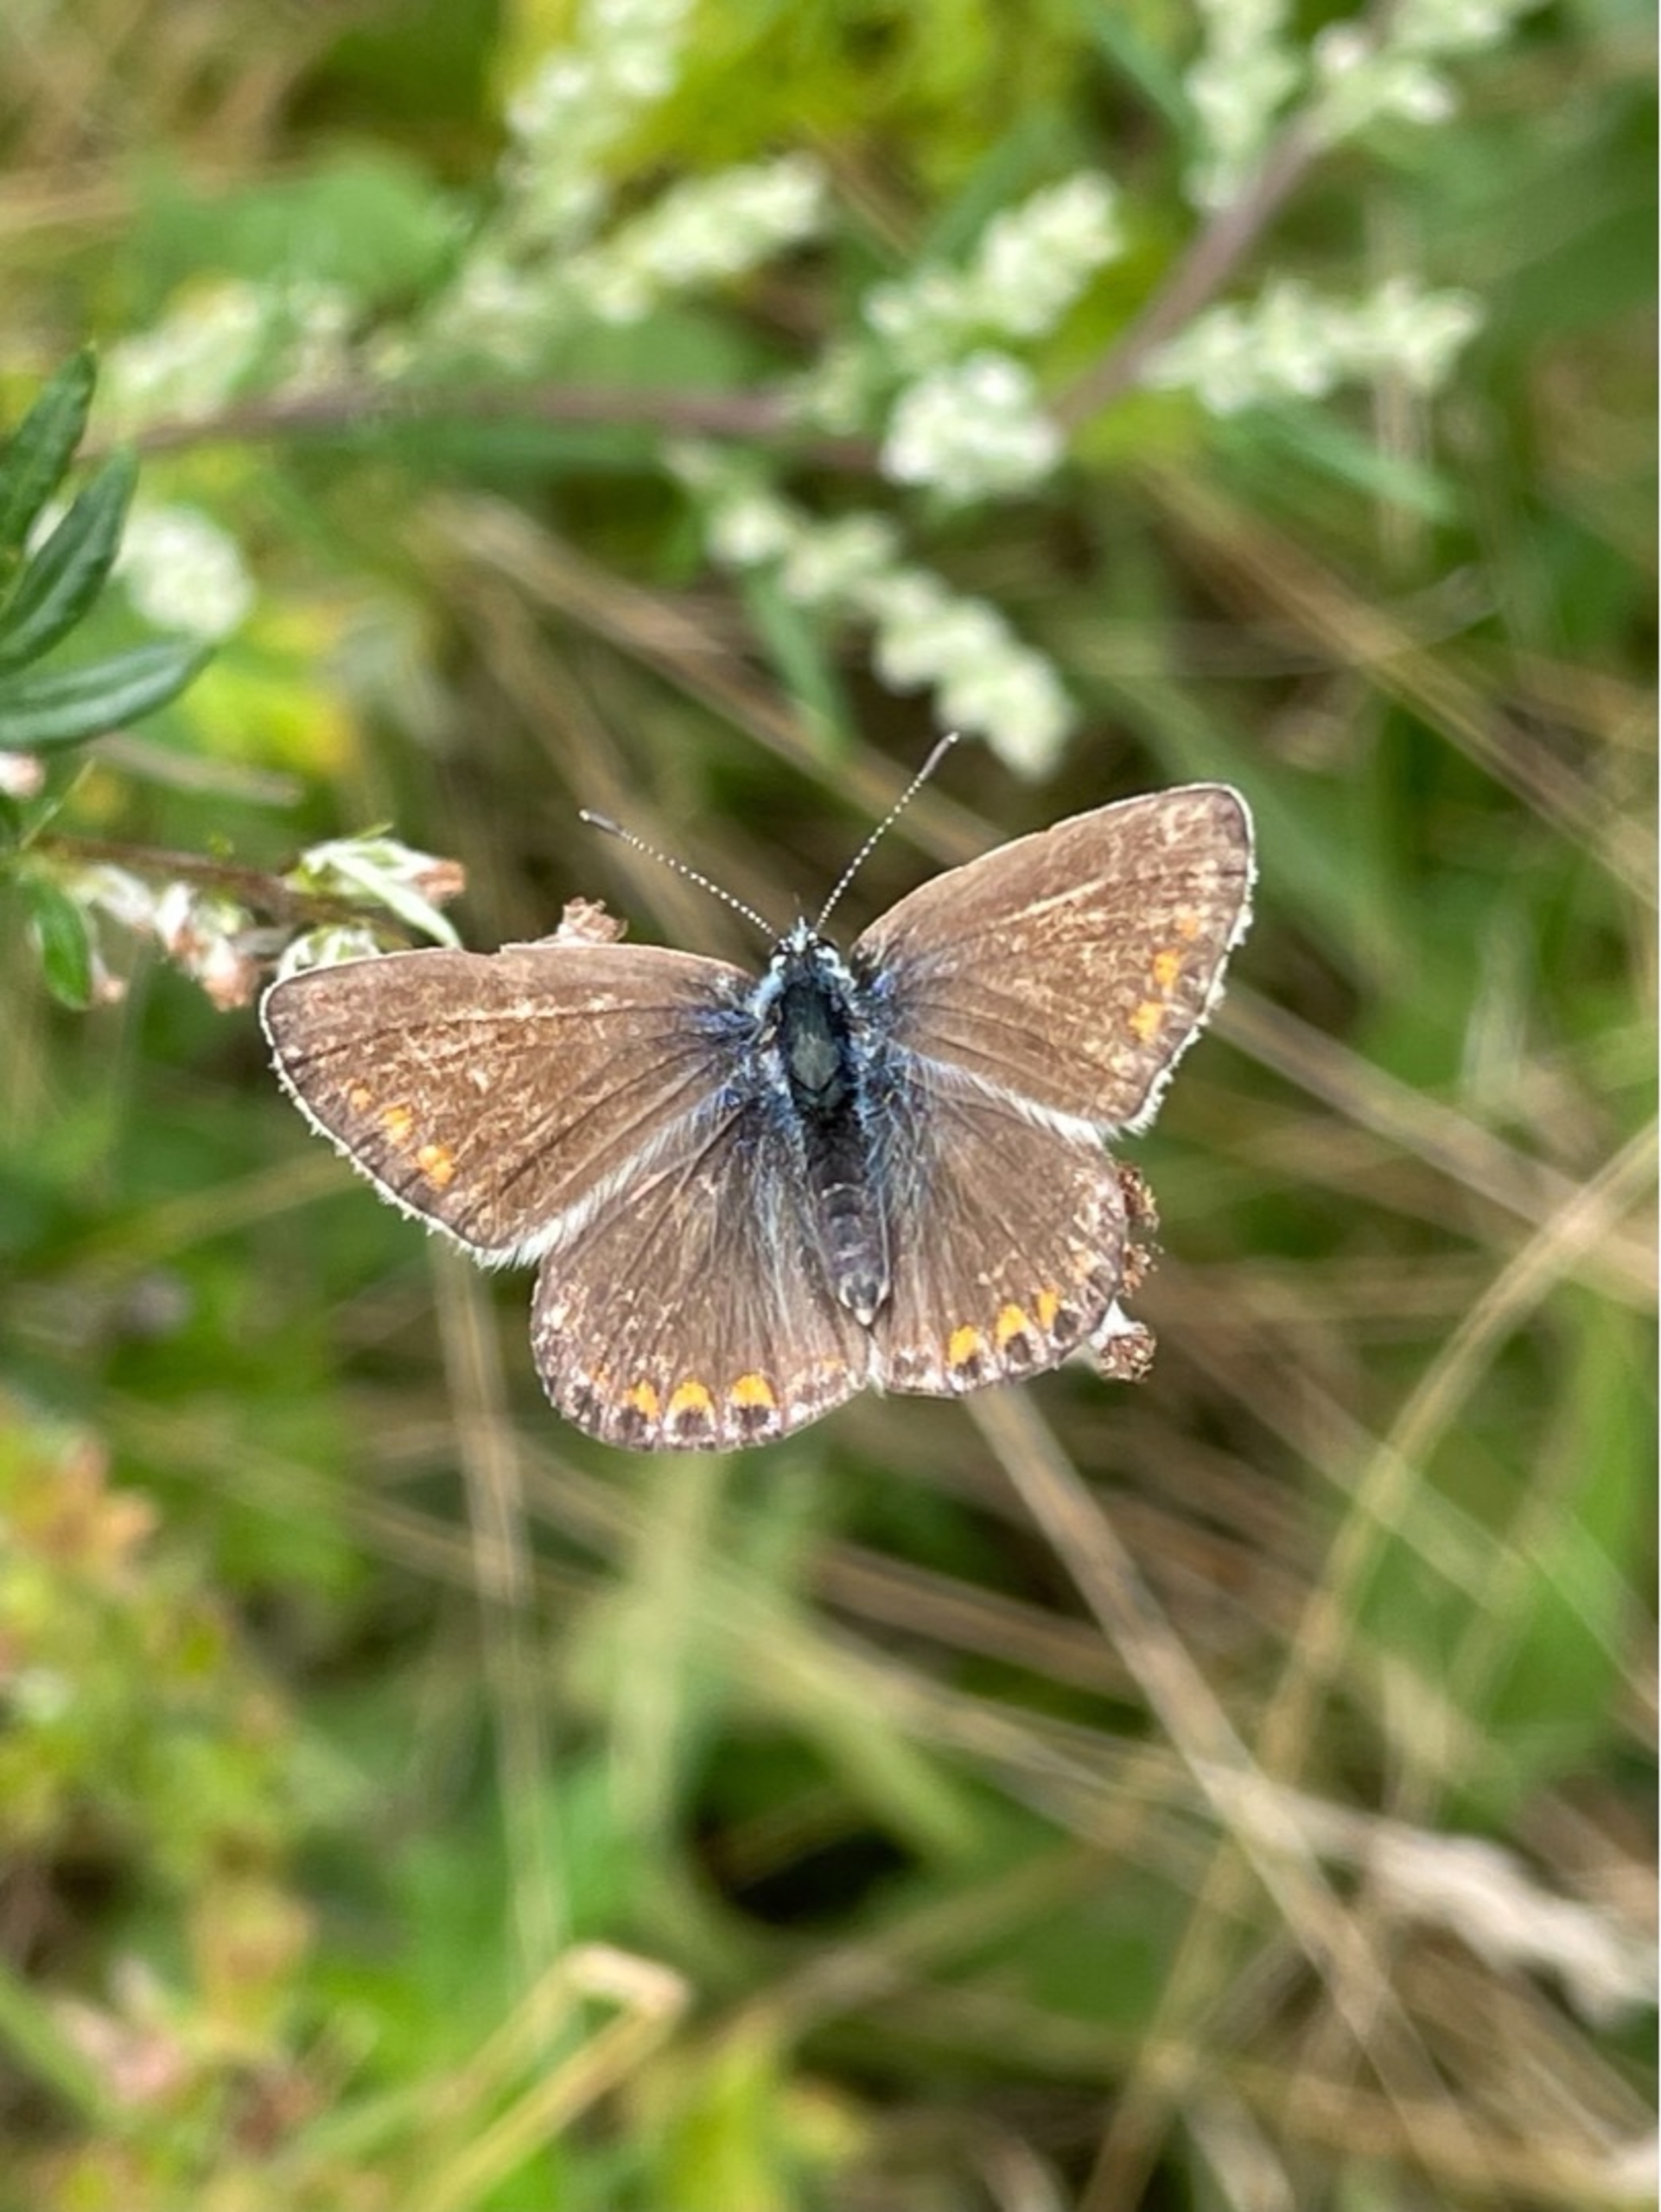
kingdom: Animalia
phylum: Arthropoda
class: Insecta
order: Lepidoptera
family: Lycaenidae
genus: Polyommatus
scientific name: Polyommatus icarus
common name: Almindelig blåfugl
